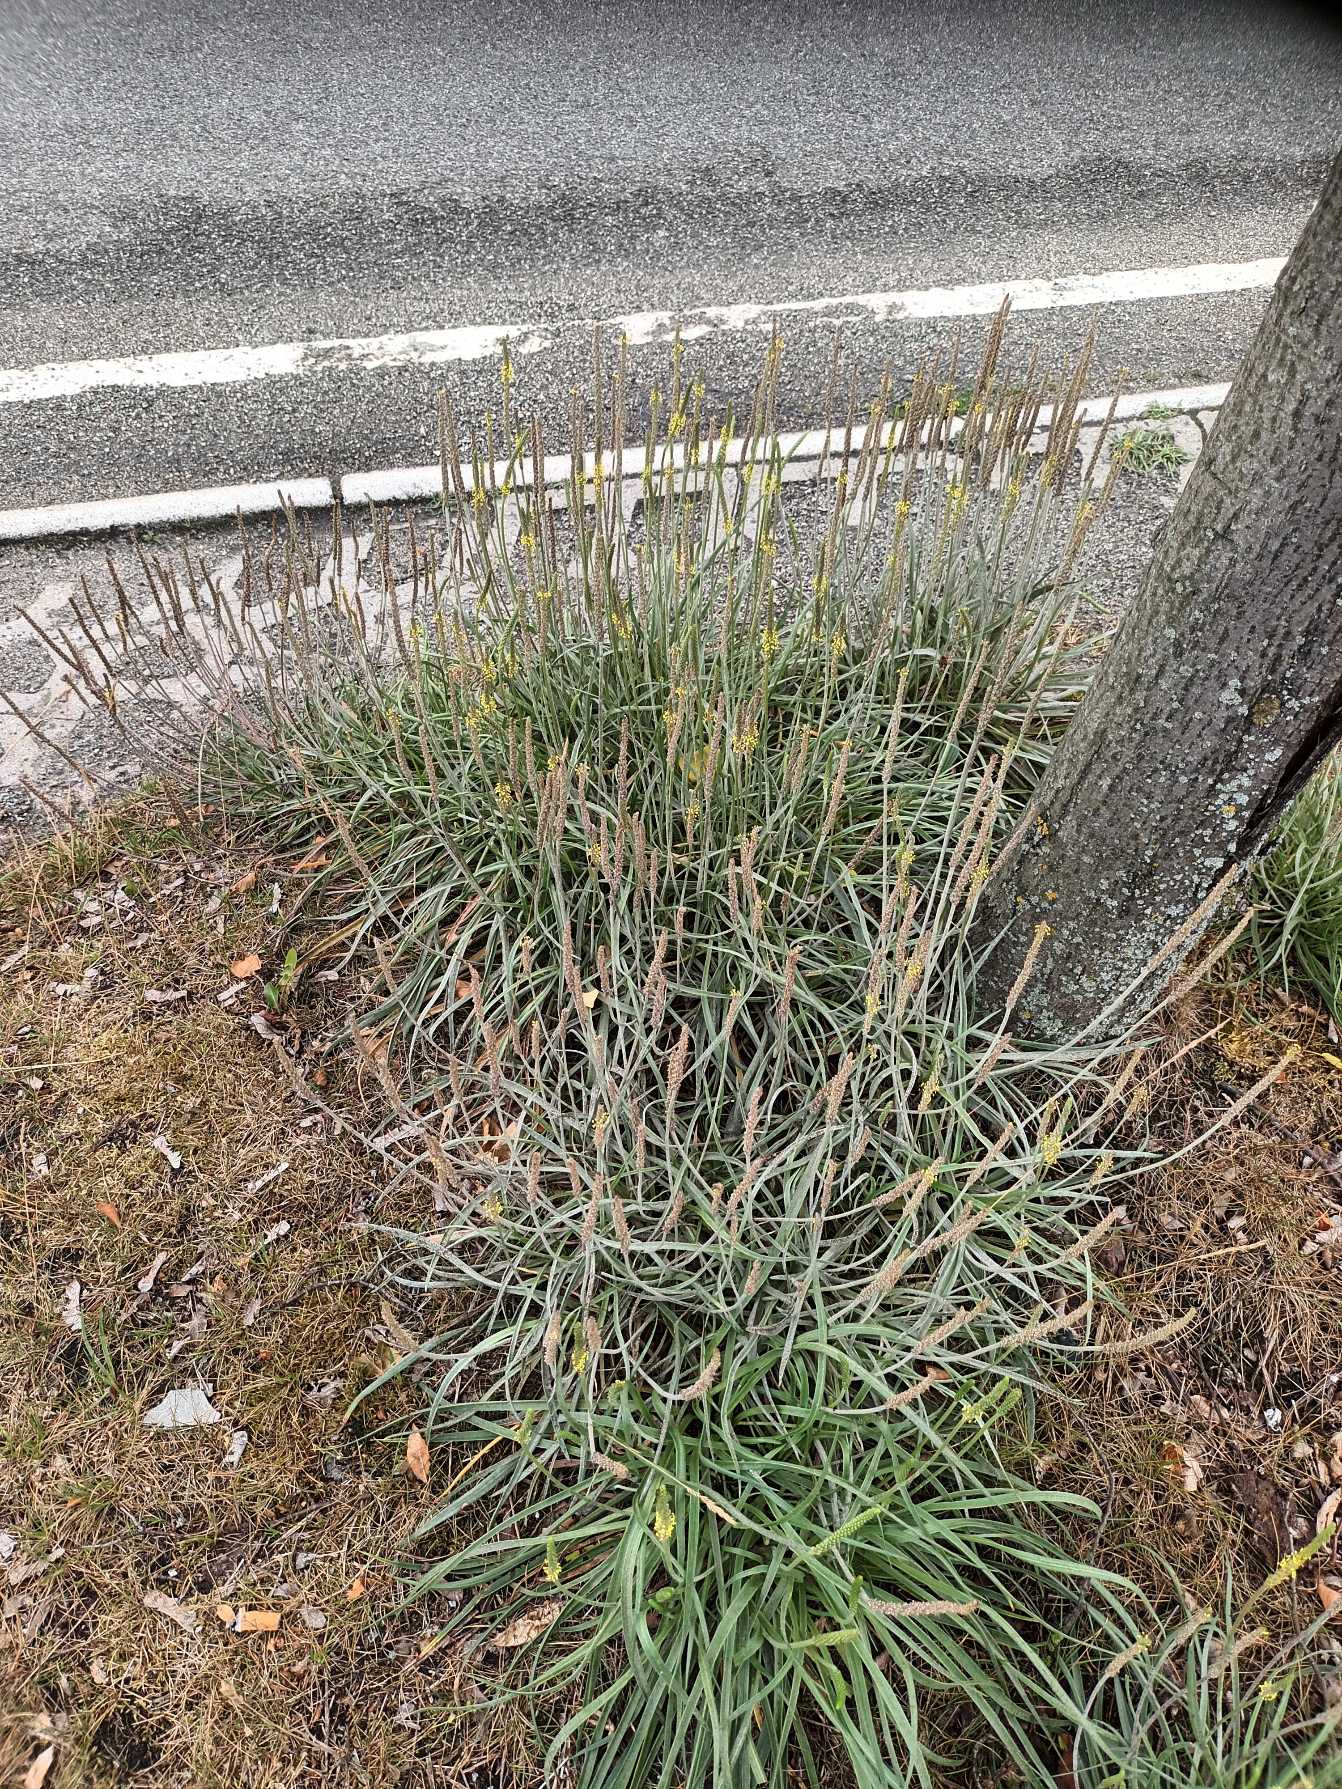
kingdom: Plantae
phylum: Tracheophyta
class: Magnoliopsida
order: Lamiales
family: Plantaginaceae
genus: Plantago
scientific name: Plantago maritima
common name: Strand-vejbred
